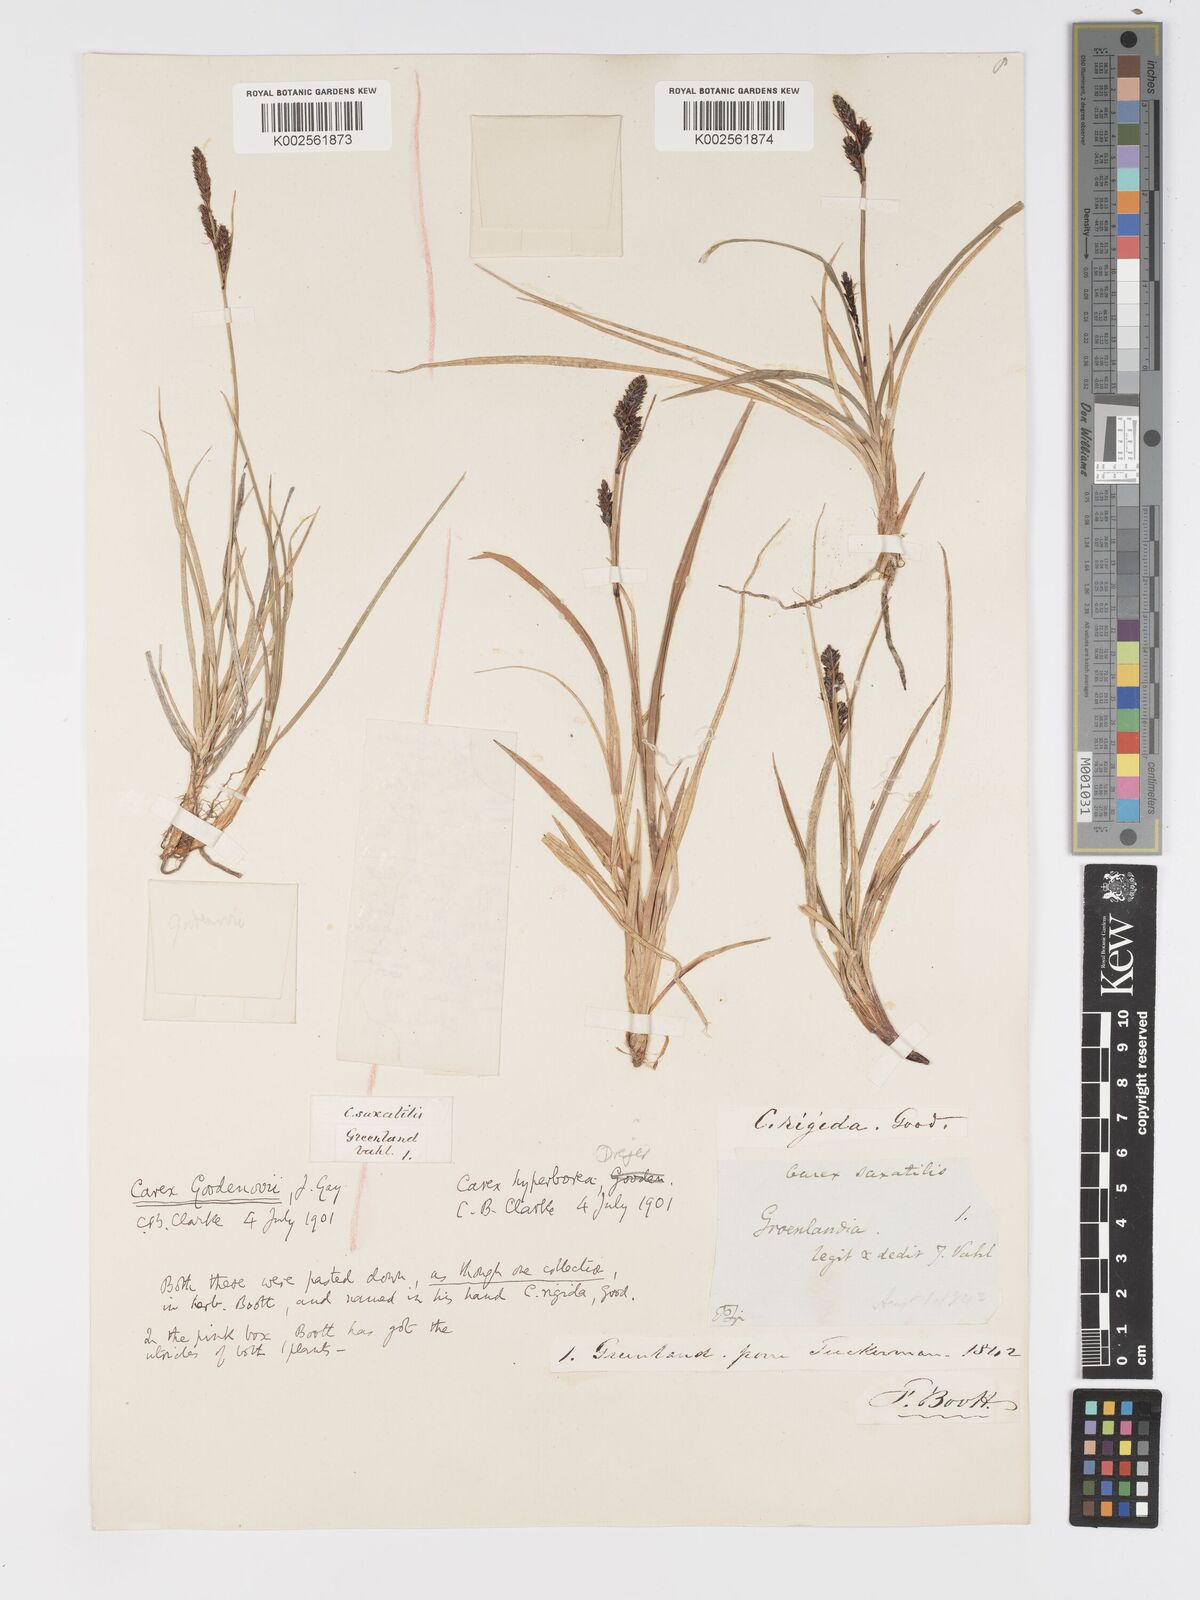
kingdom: Plantae
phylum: Tracheophyta
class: Liliopsida
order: Poales
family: Cyperaceae
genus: Carex
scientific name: Carex bigelowii
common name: Stiff sedge
